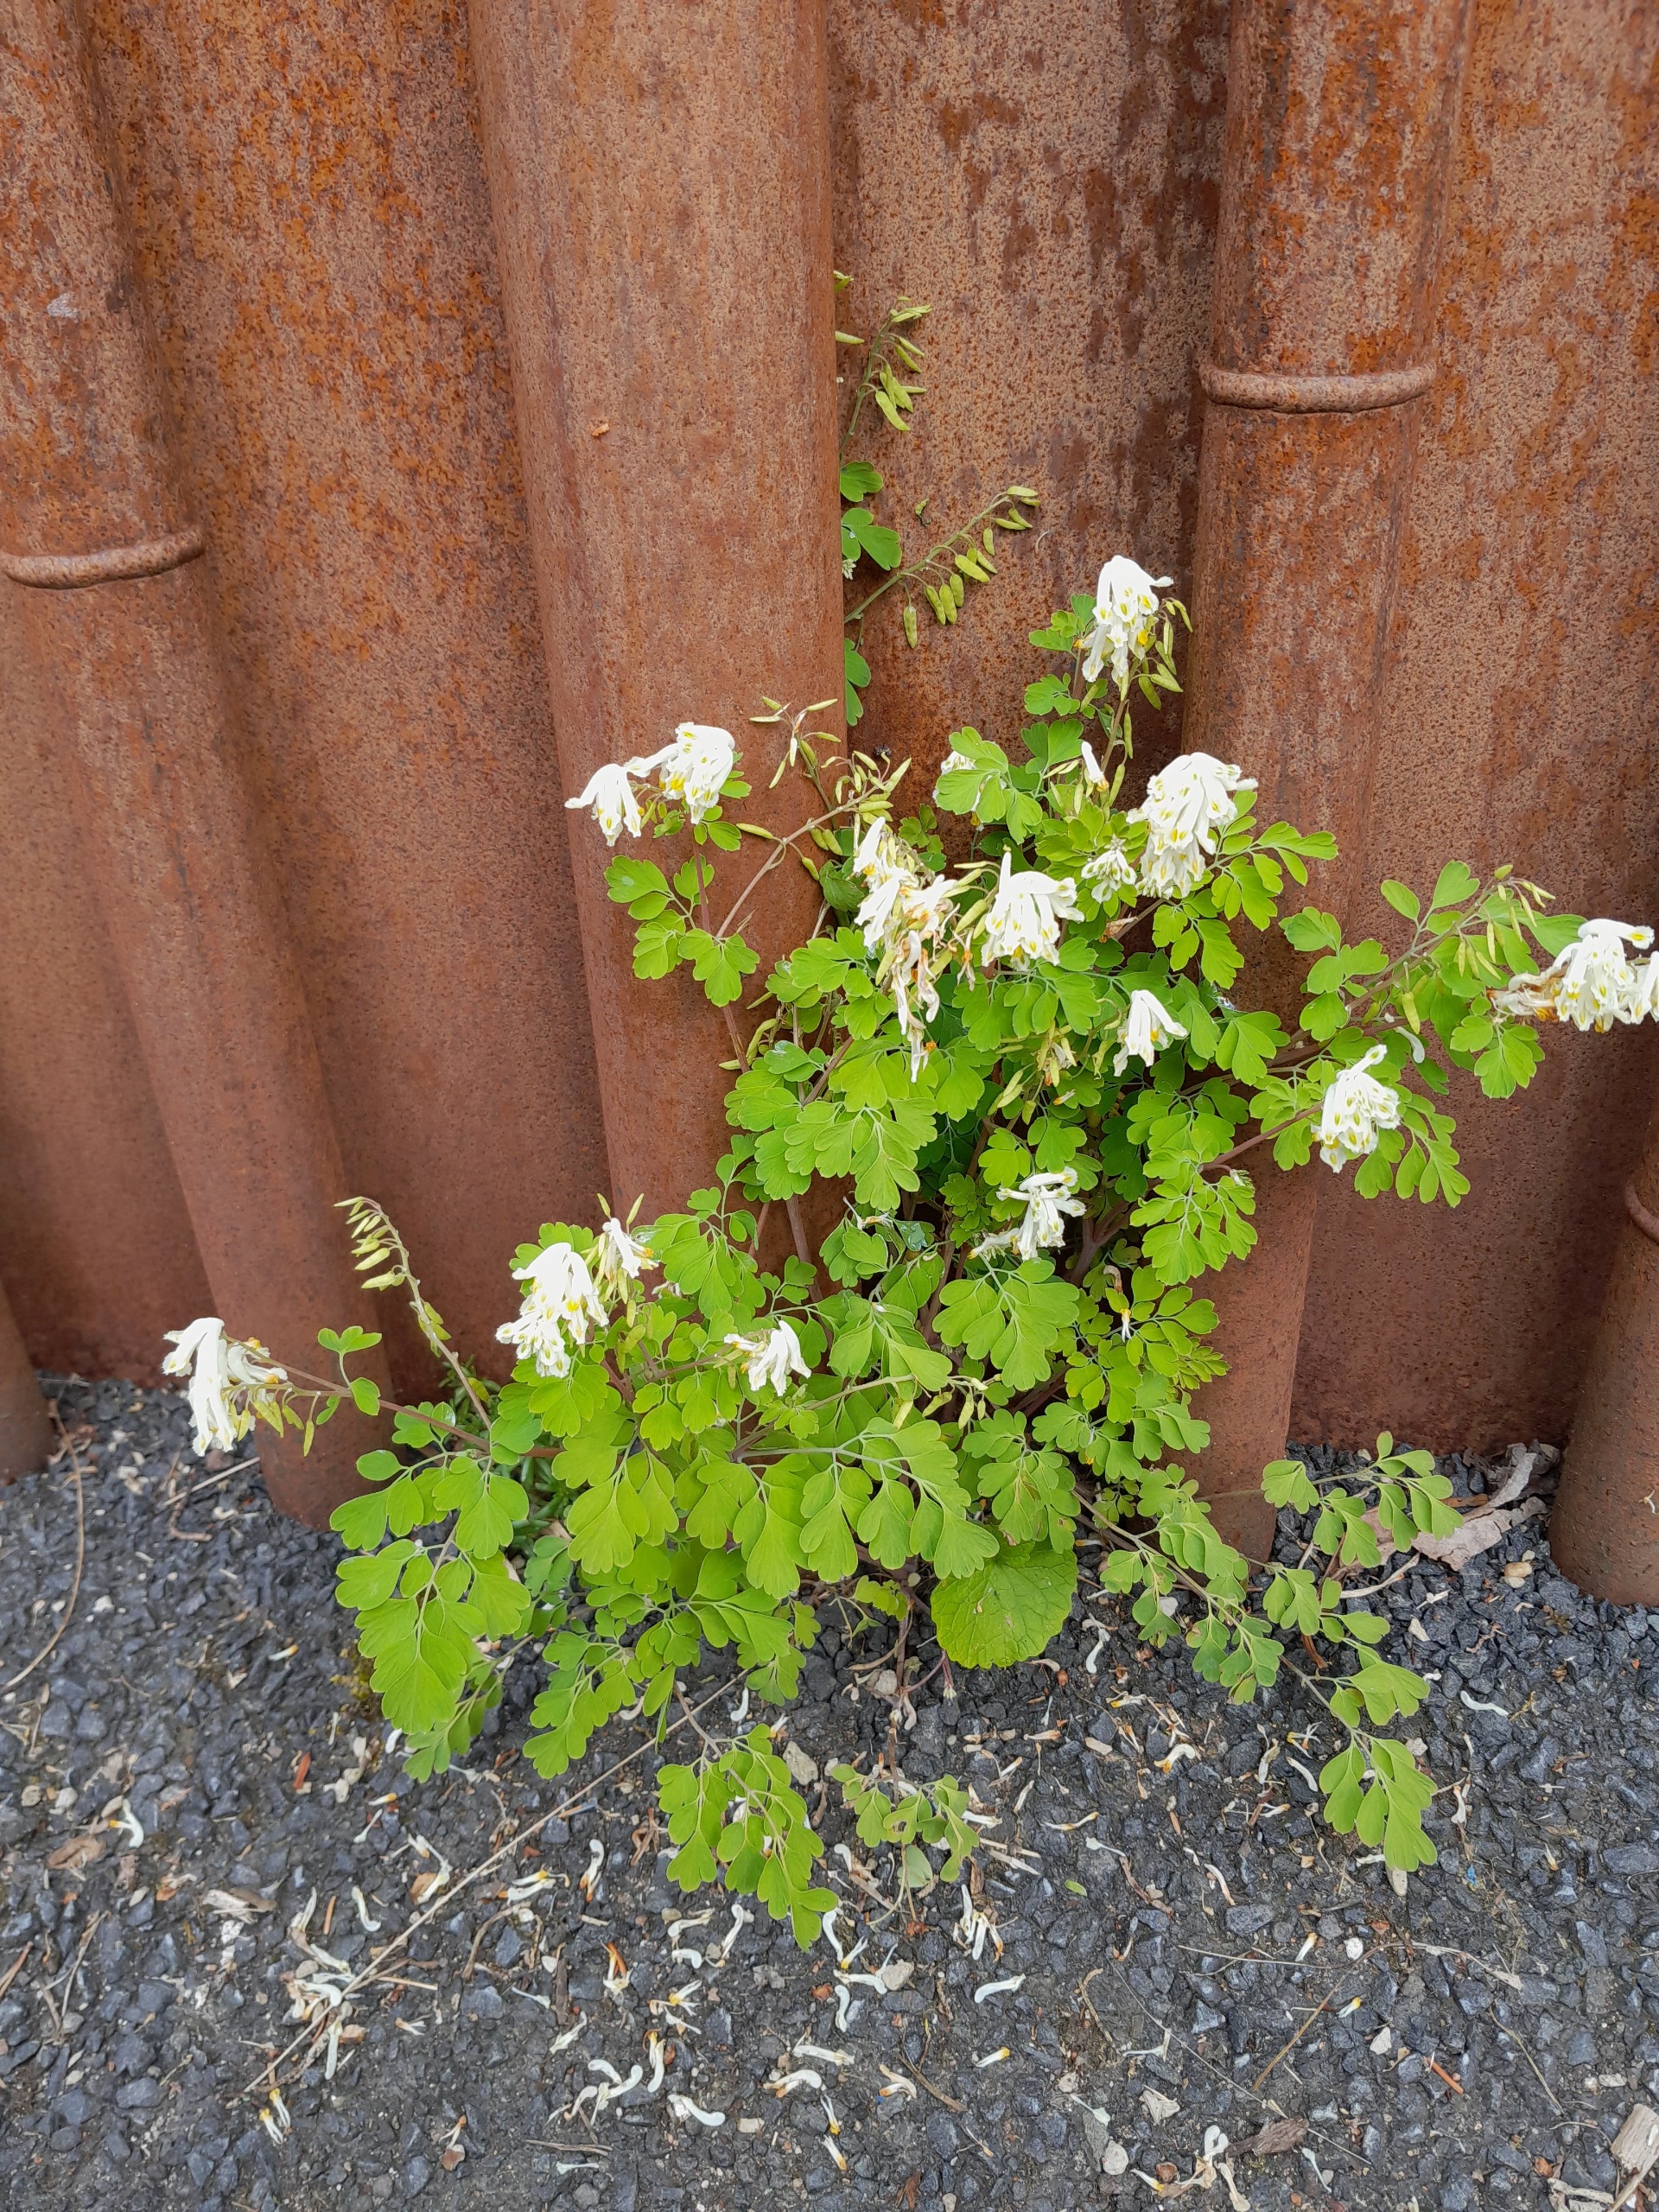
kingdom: Plantae
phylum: Tracheophyta
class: Magnoliopsida
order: Ranunculales
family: Papaveraceae
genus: Pseudofumaria
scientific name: Pseudofumaria alba
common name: Hvidgul lærkespore
